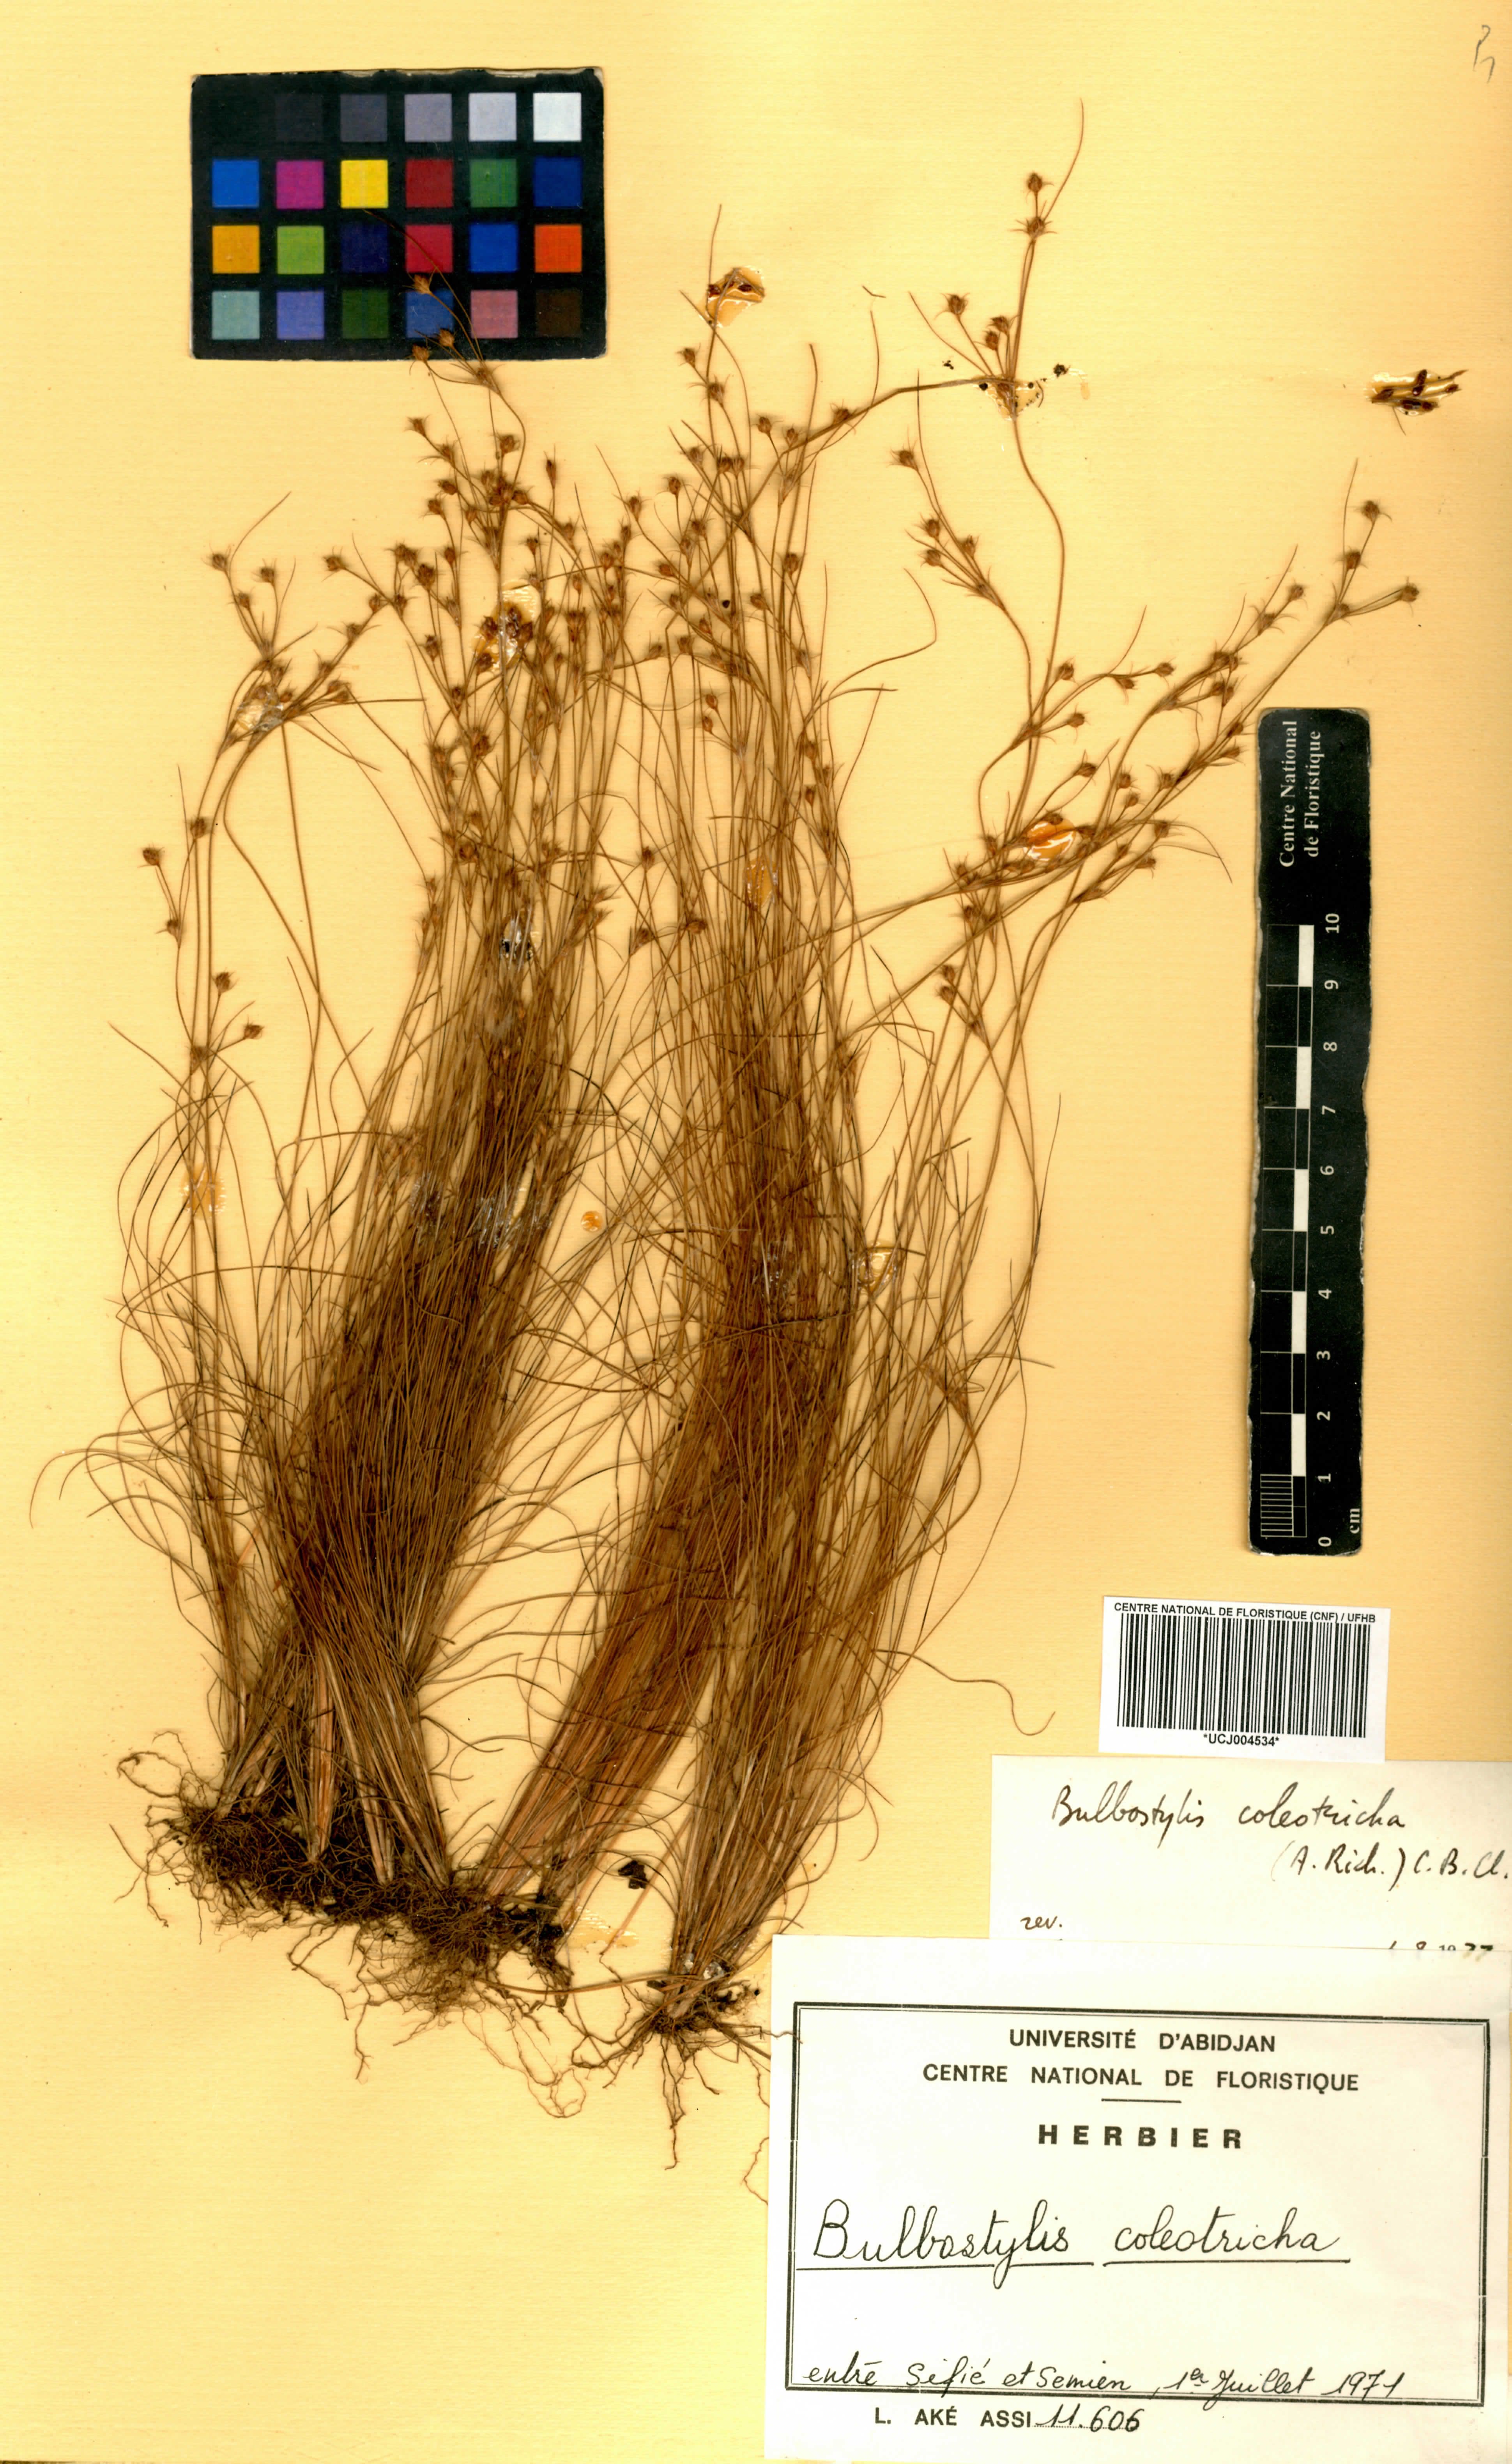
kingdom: Plantae
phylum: Tracheophyta
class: Liliopsida
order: Poales
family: Cyperaceae
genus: Bulbostylis
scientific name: Bulbostylis coleotricha
